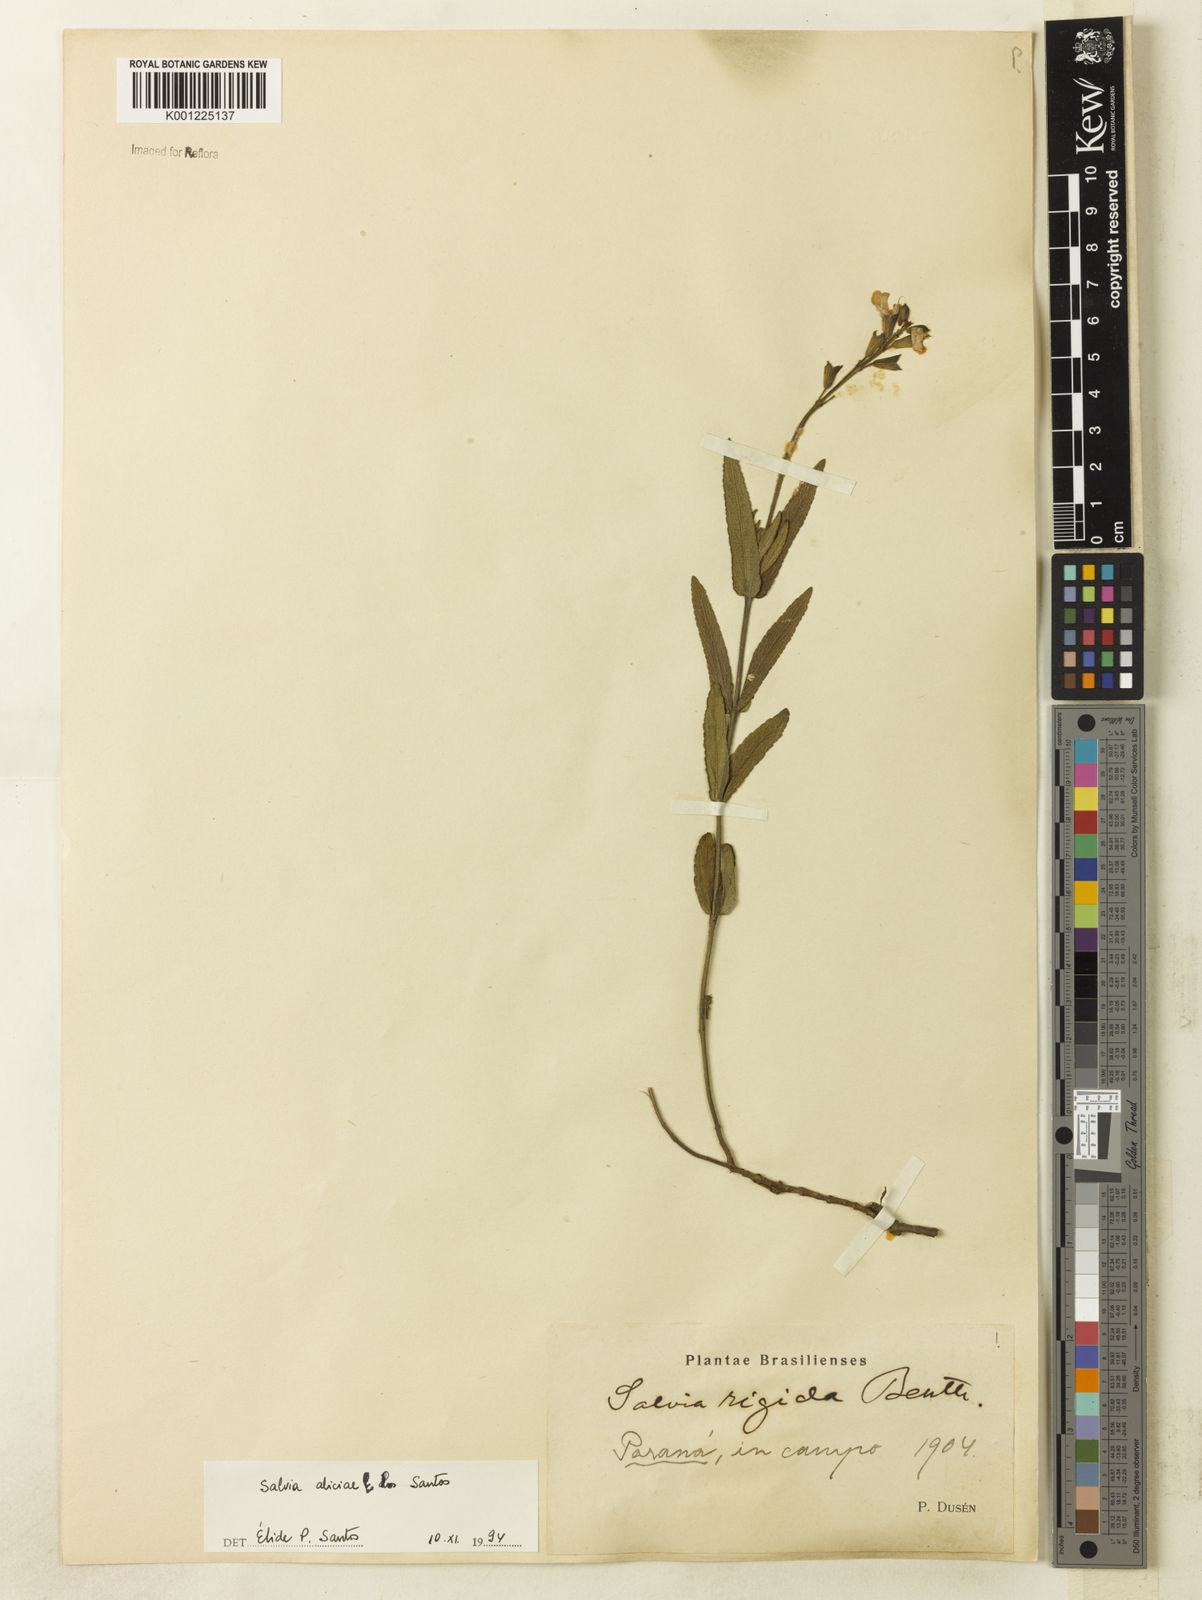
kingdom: Plantae
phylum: Tracheophyta
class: Magnoliopsida
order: Lamiales
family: Lamiaceae
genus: Salvia
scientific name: Salvia aliciae
